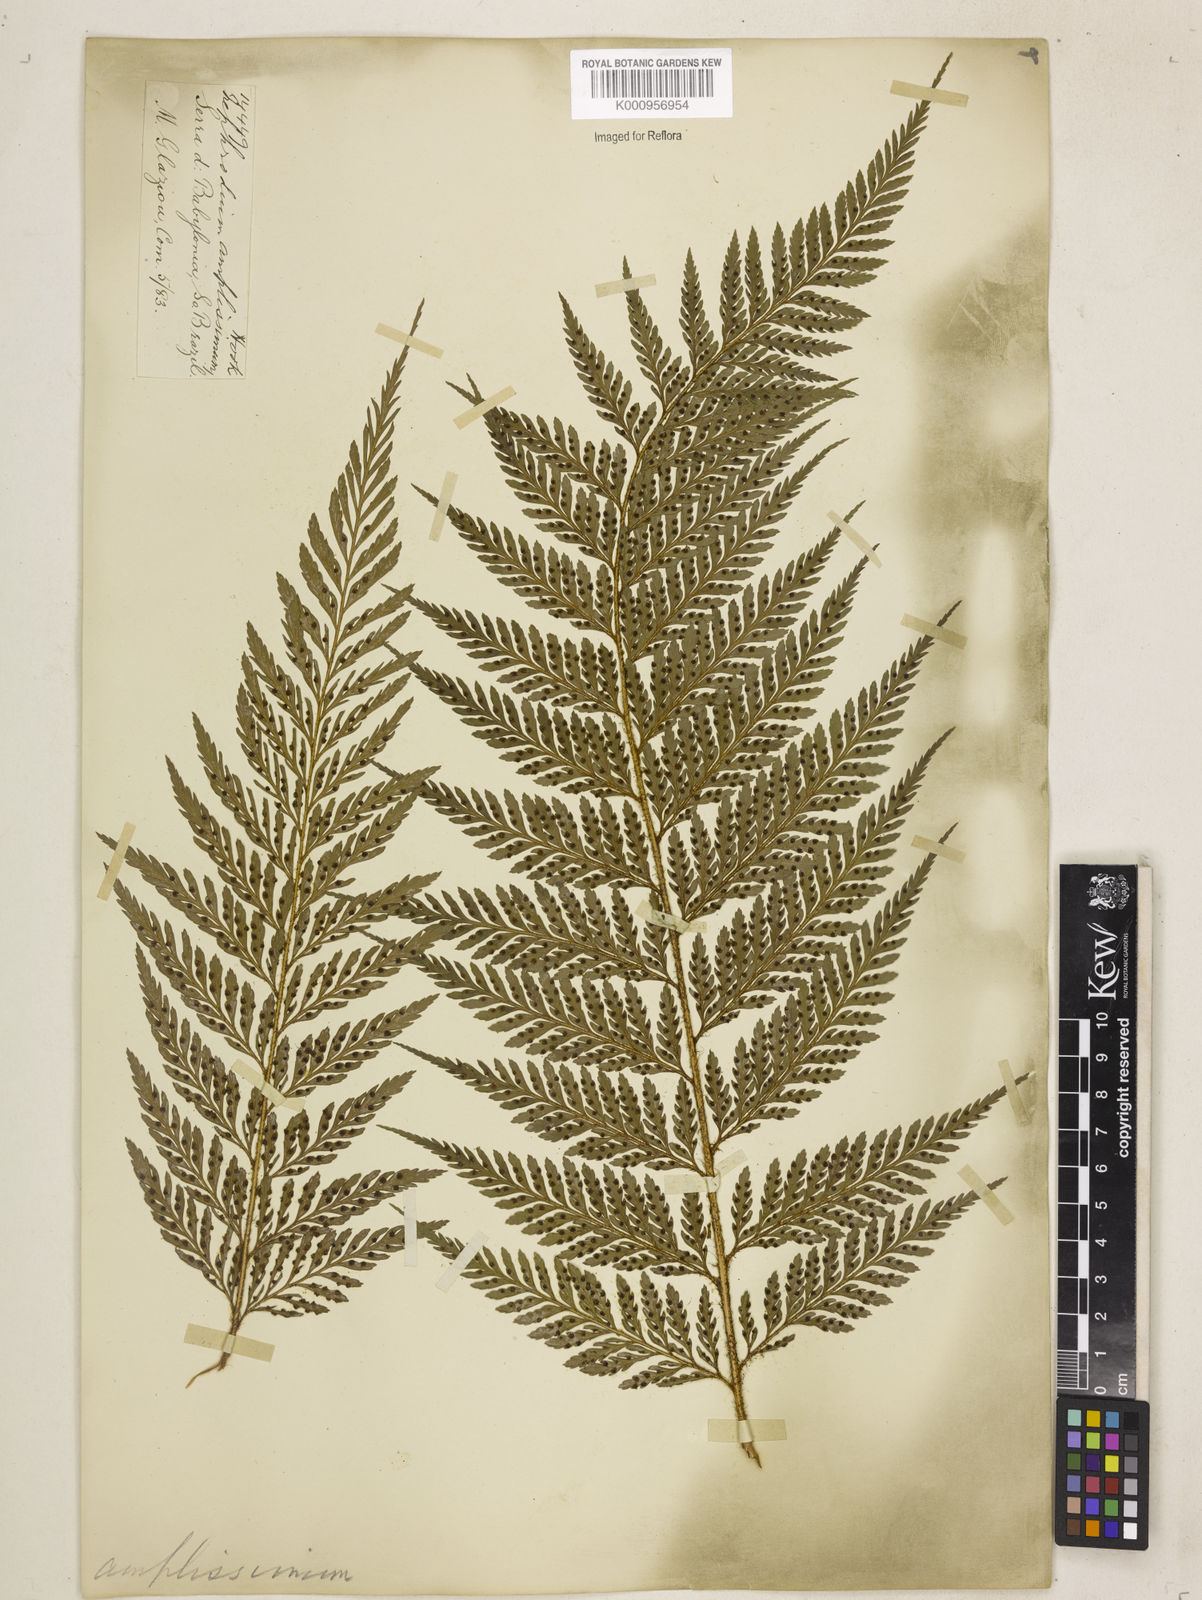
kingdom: Plantae
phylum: Tracheophyta
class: Polypodiopsida
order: Polypodiales
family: Dryopteridaceae
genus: Lastreopsis
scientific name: Lastreopsis amplissima
